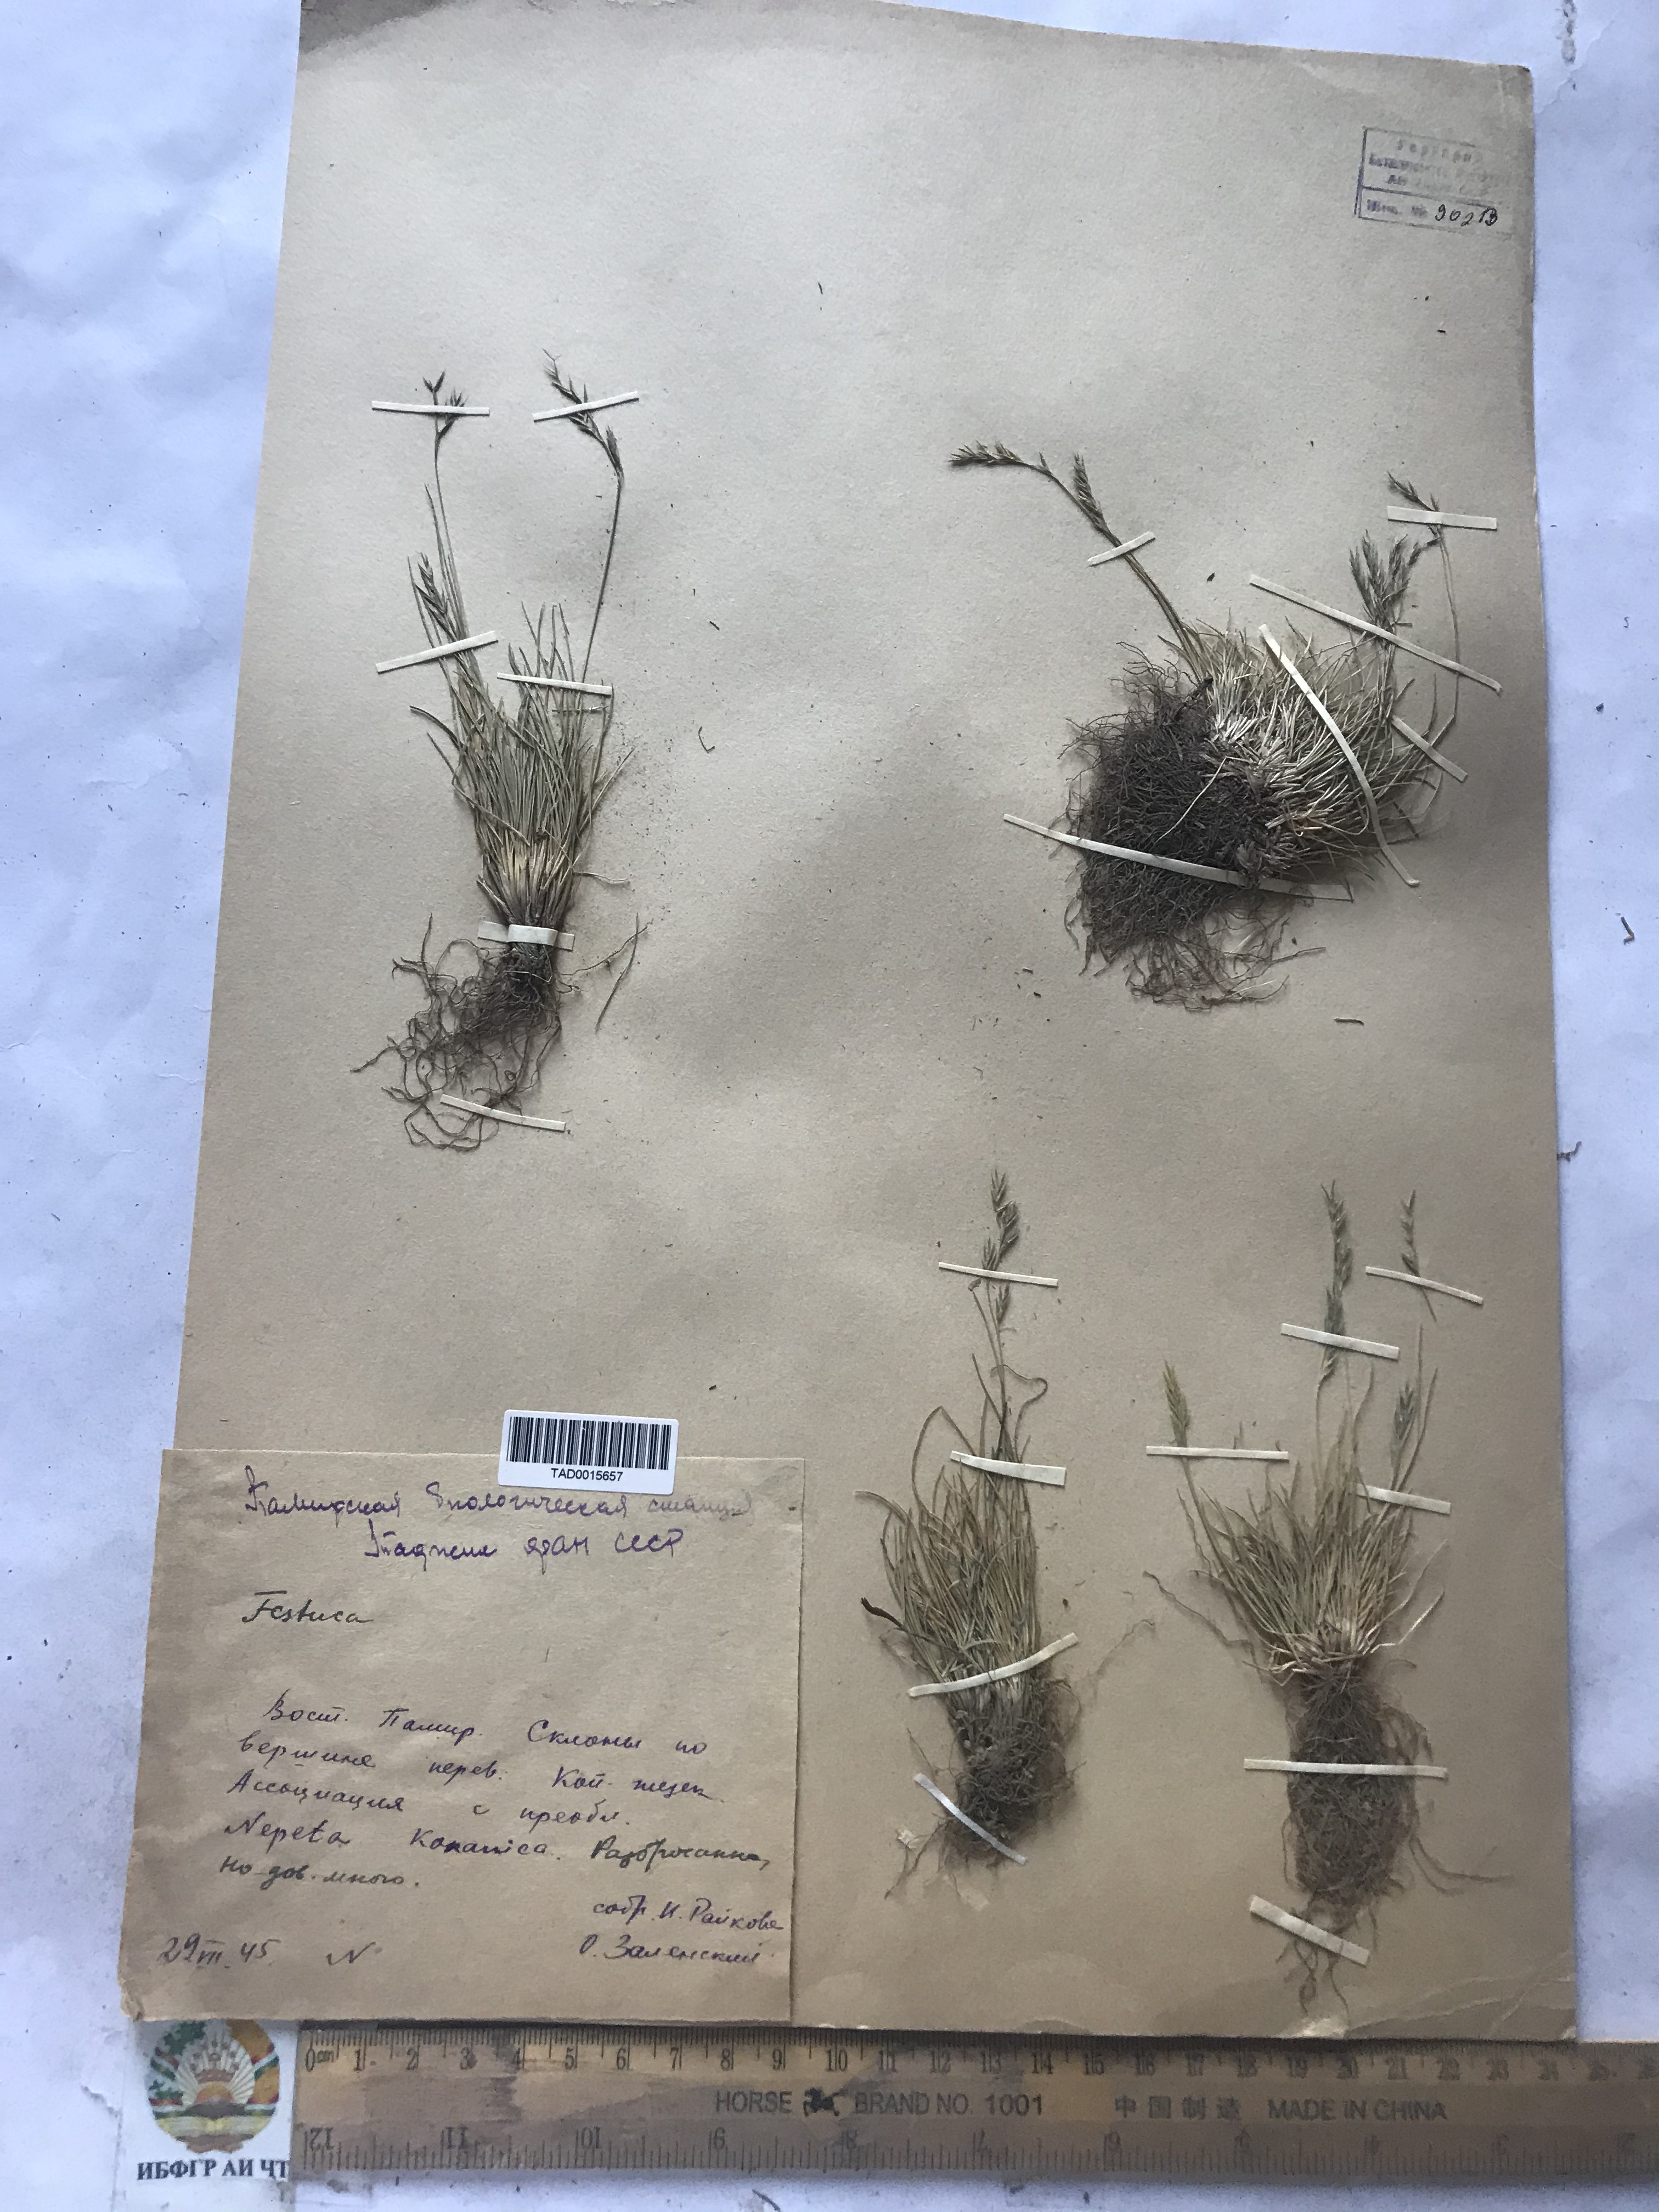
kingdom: Plantae
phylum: Tracheophyta
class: Liliopsida
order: Poales
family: Poaceae
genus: Festuca
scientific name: Festuca
